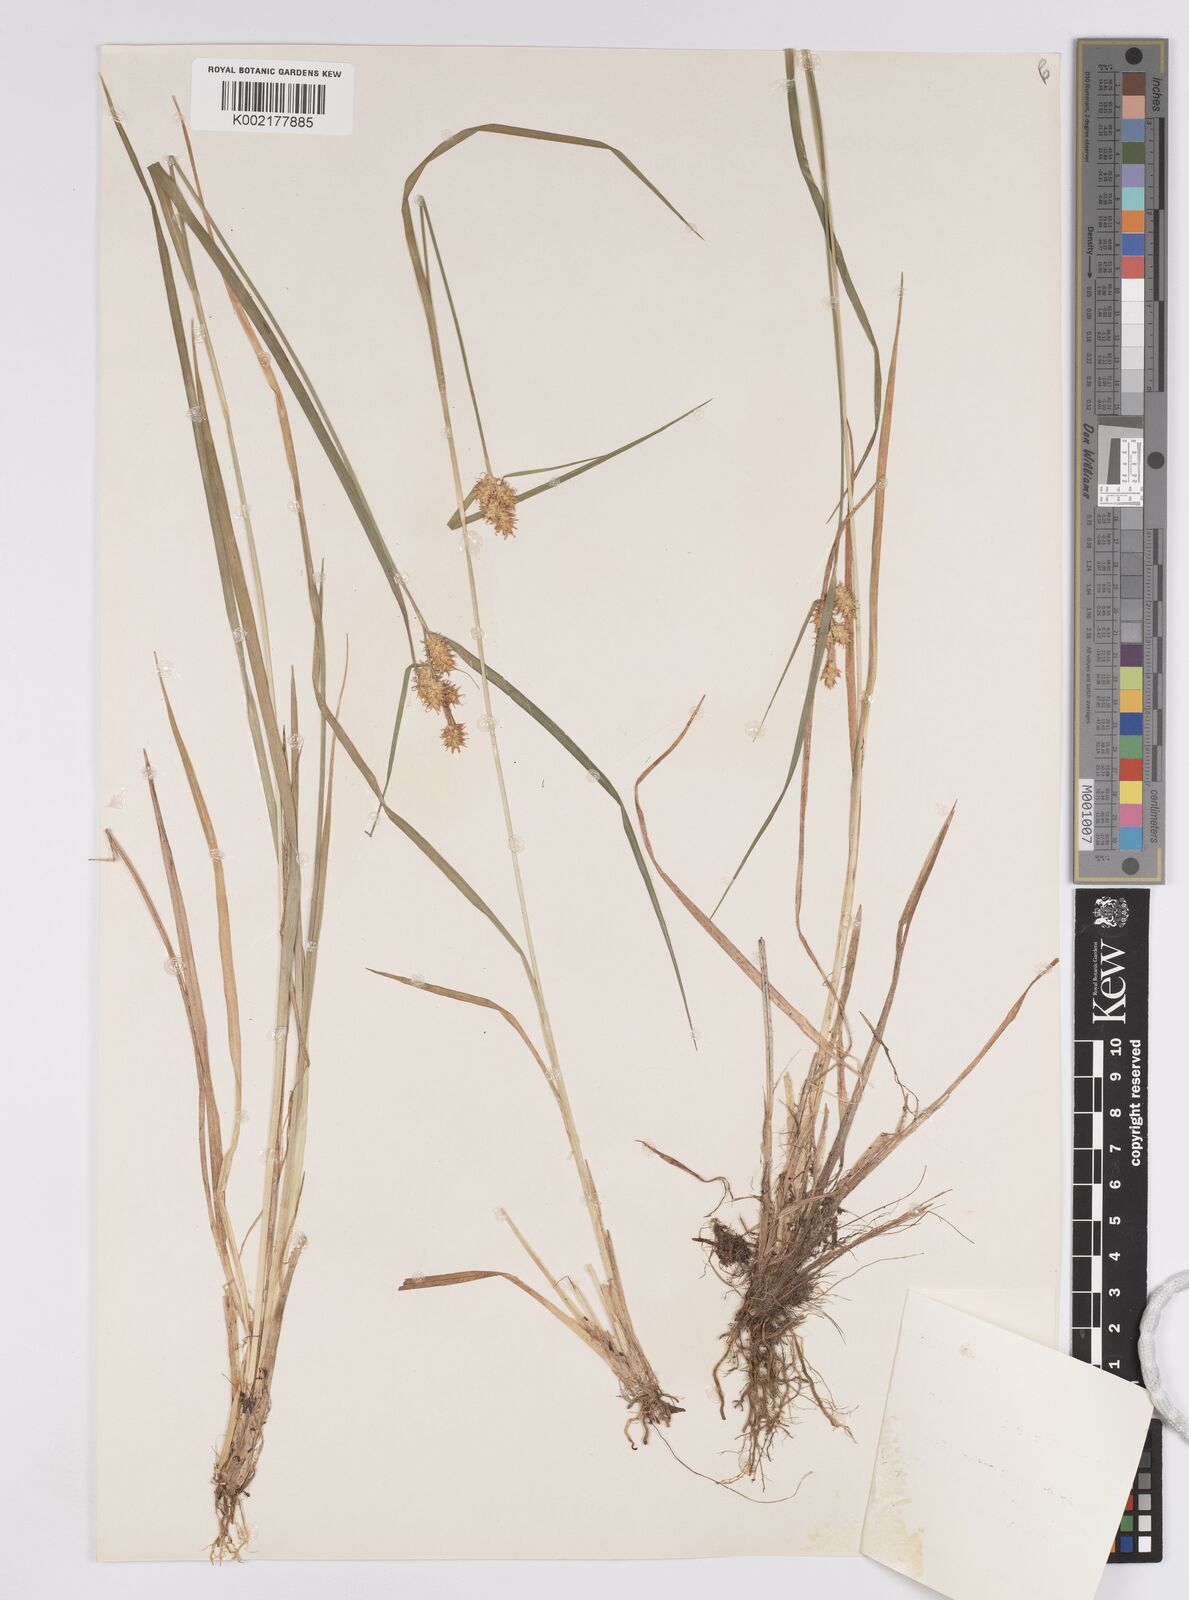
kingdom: Plantae
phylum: Tracheophyta
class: Liliopsida
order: Poales
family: Cyperaceae
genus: Carex
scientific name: Carex flava
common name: Large yellow-sedge
